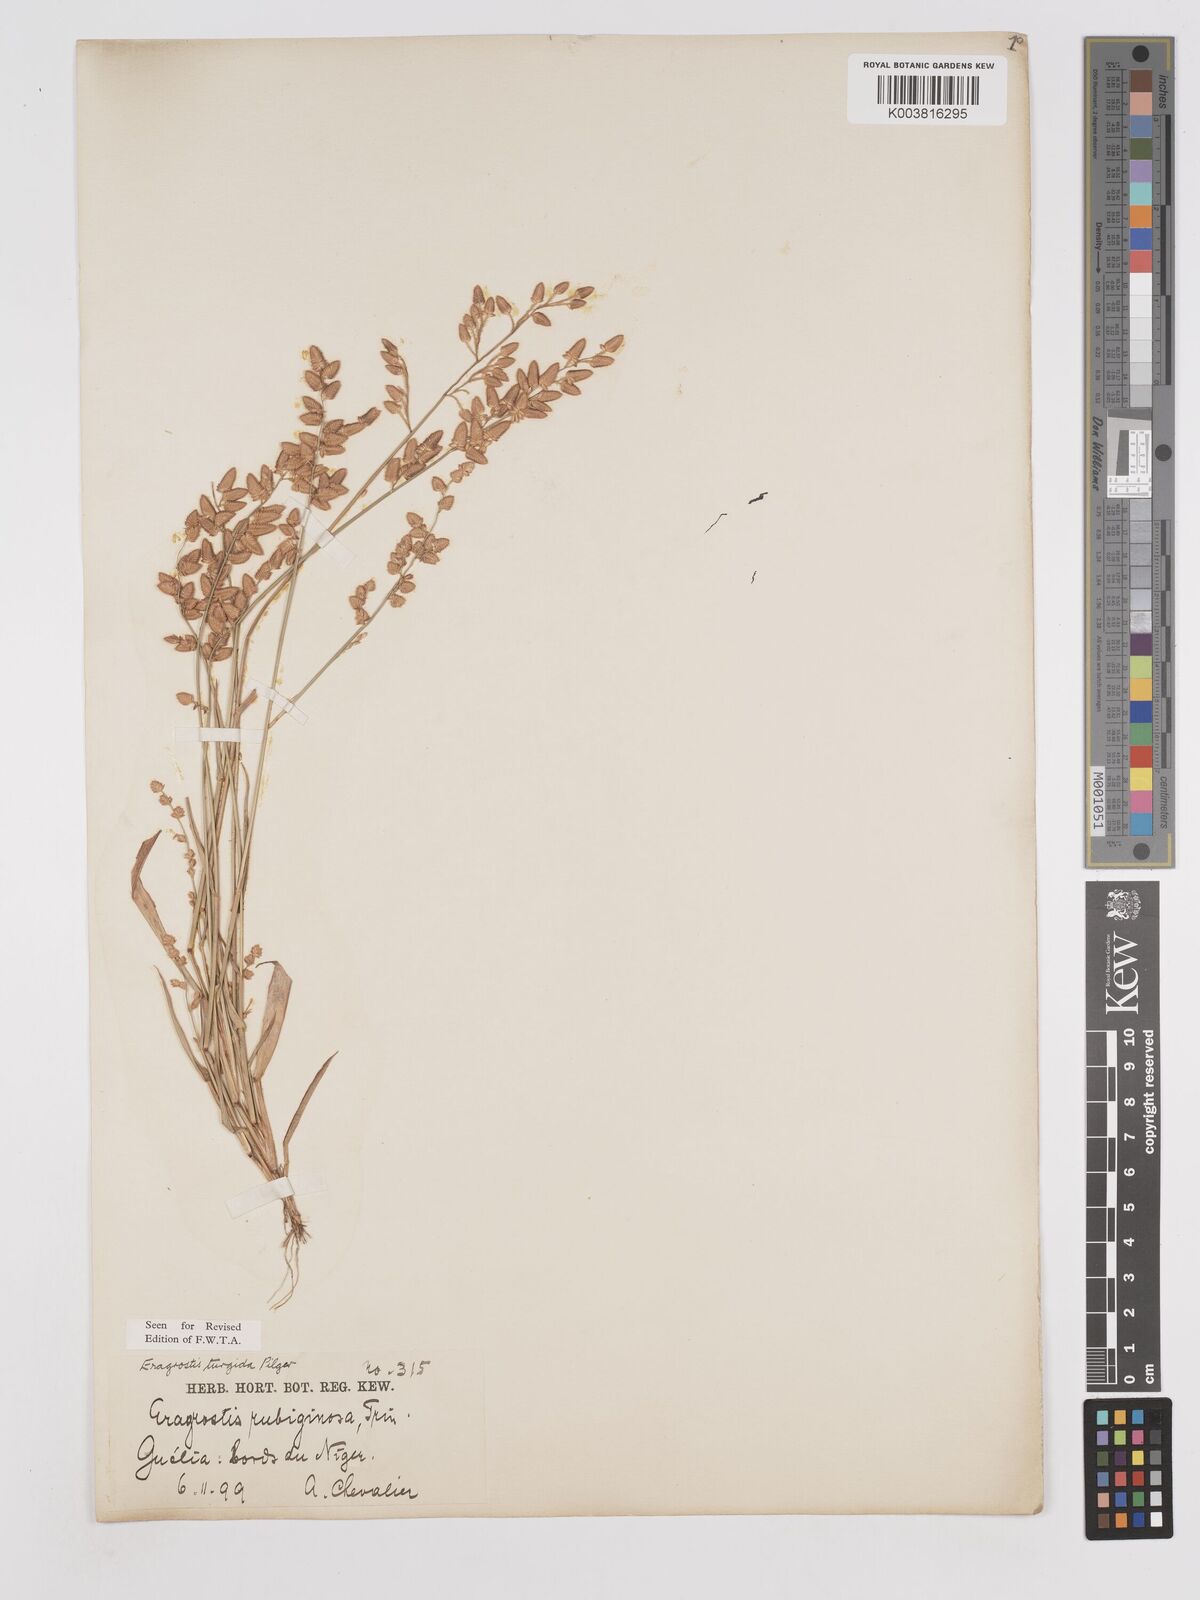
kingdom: Plantae
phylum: Tracheophyta
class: Liliopsida
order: Poales
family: Poaceae
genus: Eragrostis
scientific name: Eragrostis turgida
